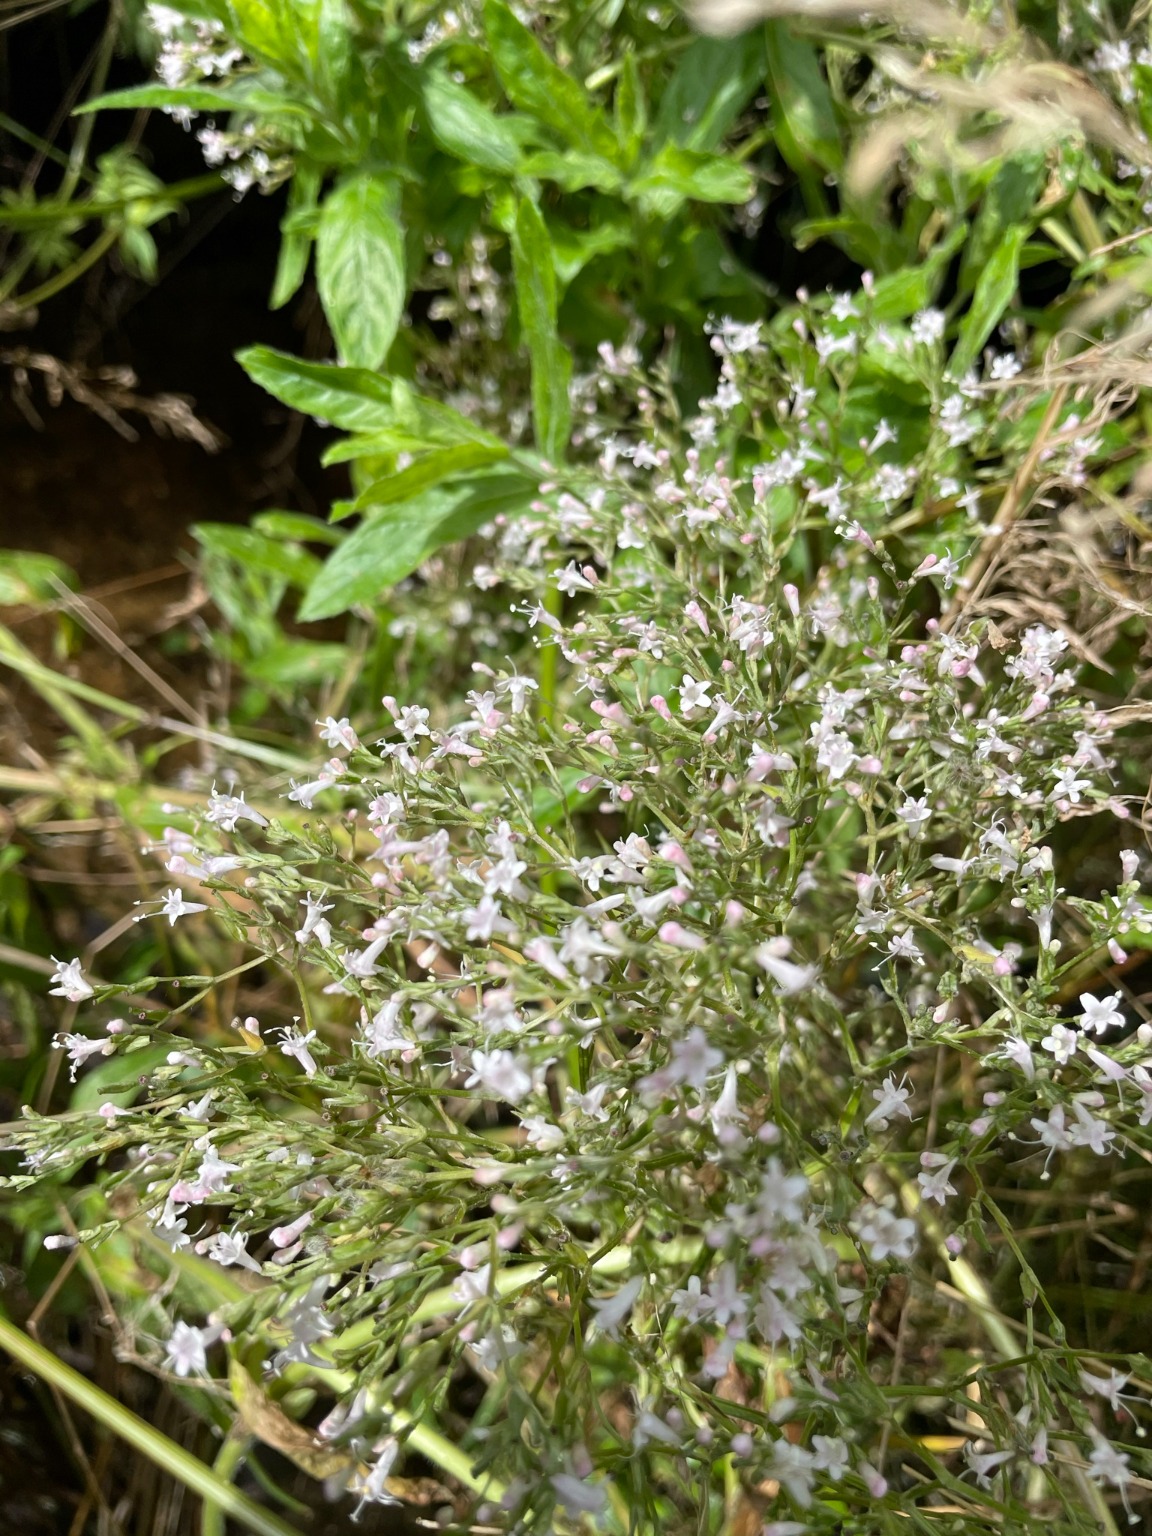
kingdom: Plantae
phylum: Tracheophyta
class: Magnoliopsida
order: Dipsacales
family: Caprifoliaceae
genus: Valeriana
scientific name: Valeriana sambucifolia
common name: Hyldebladet baldrian
